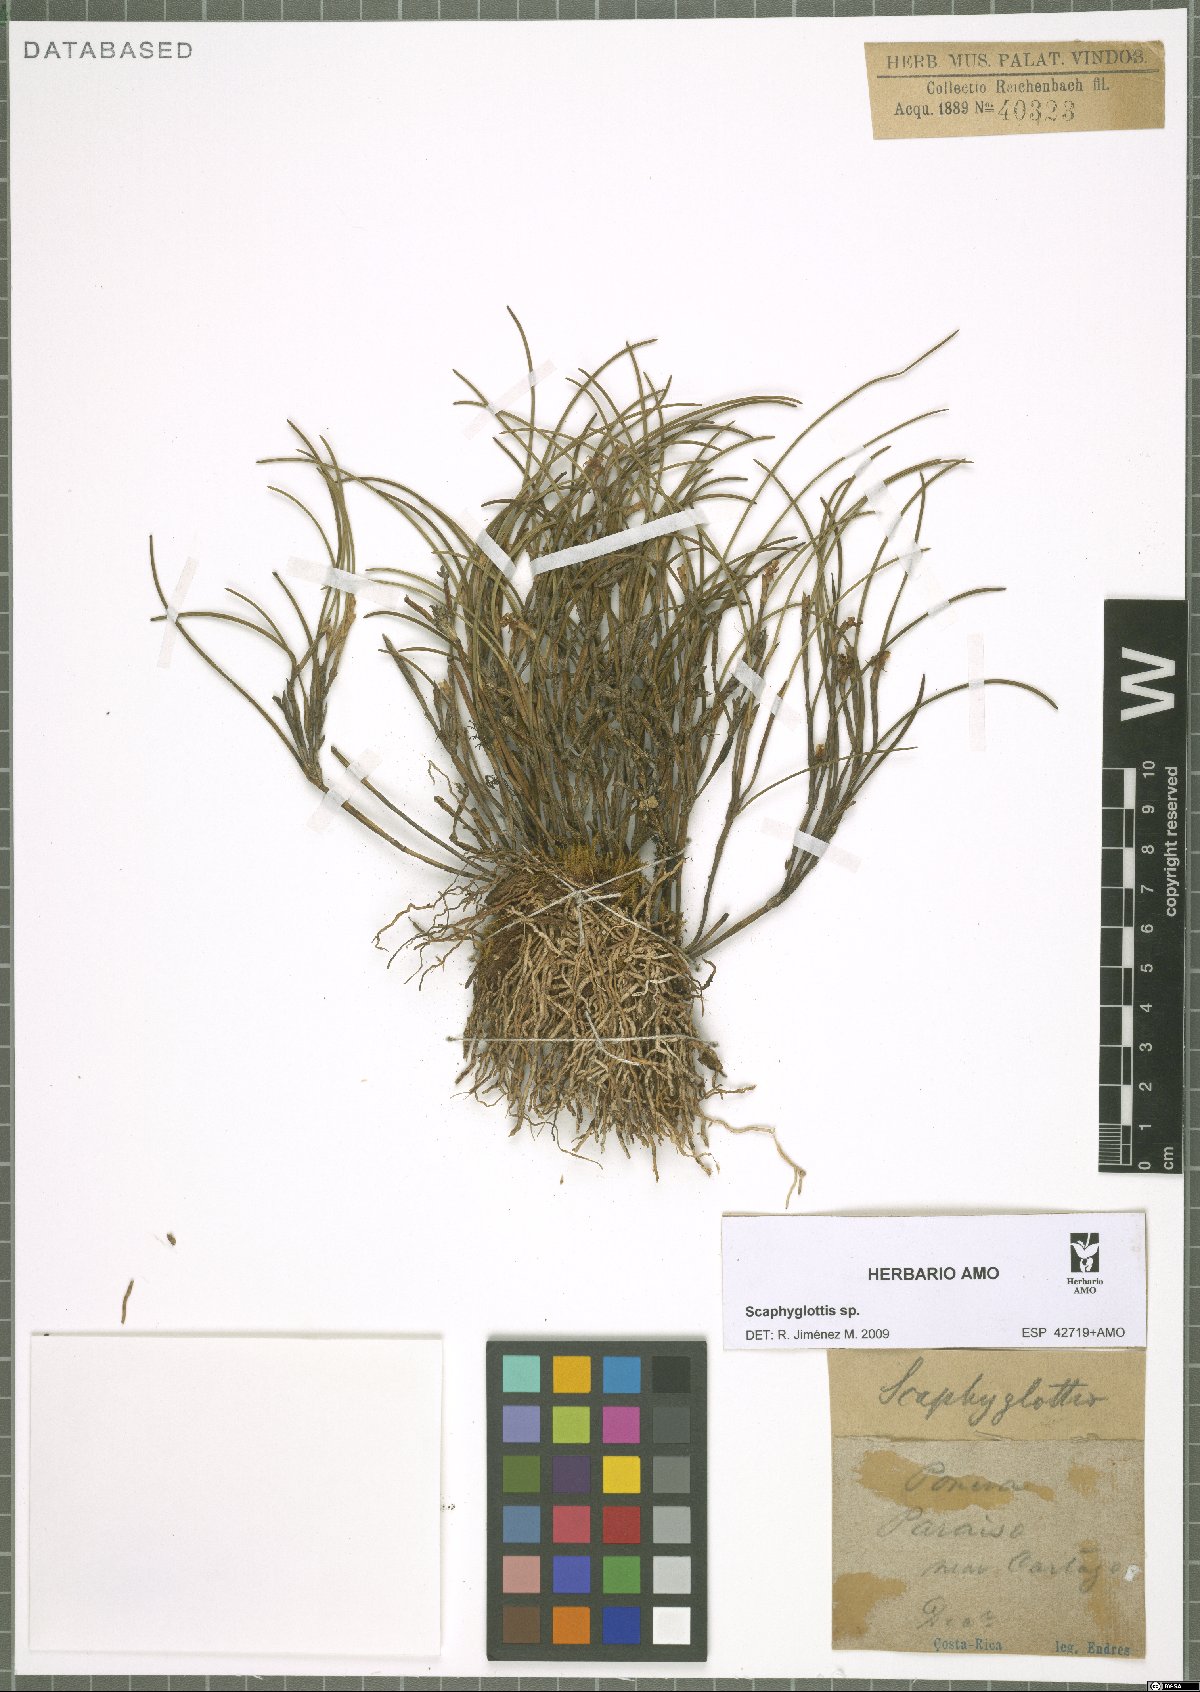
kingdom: Plantae
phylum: Tracheophyta
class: Liliopsida
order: Asparagales
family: Orchidaceae
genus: Scaphyglottis
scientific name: Scaphyglottis
